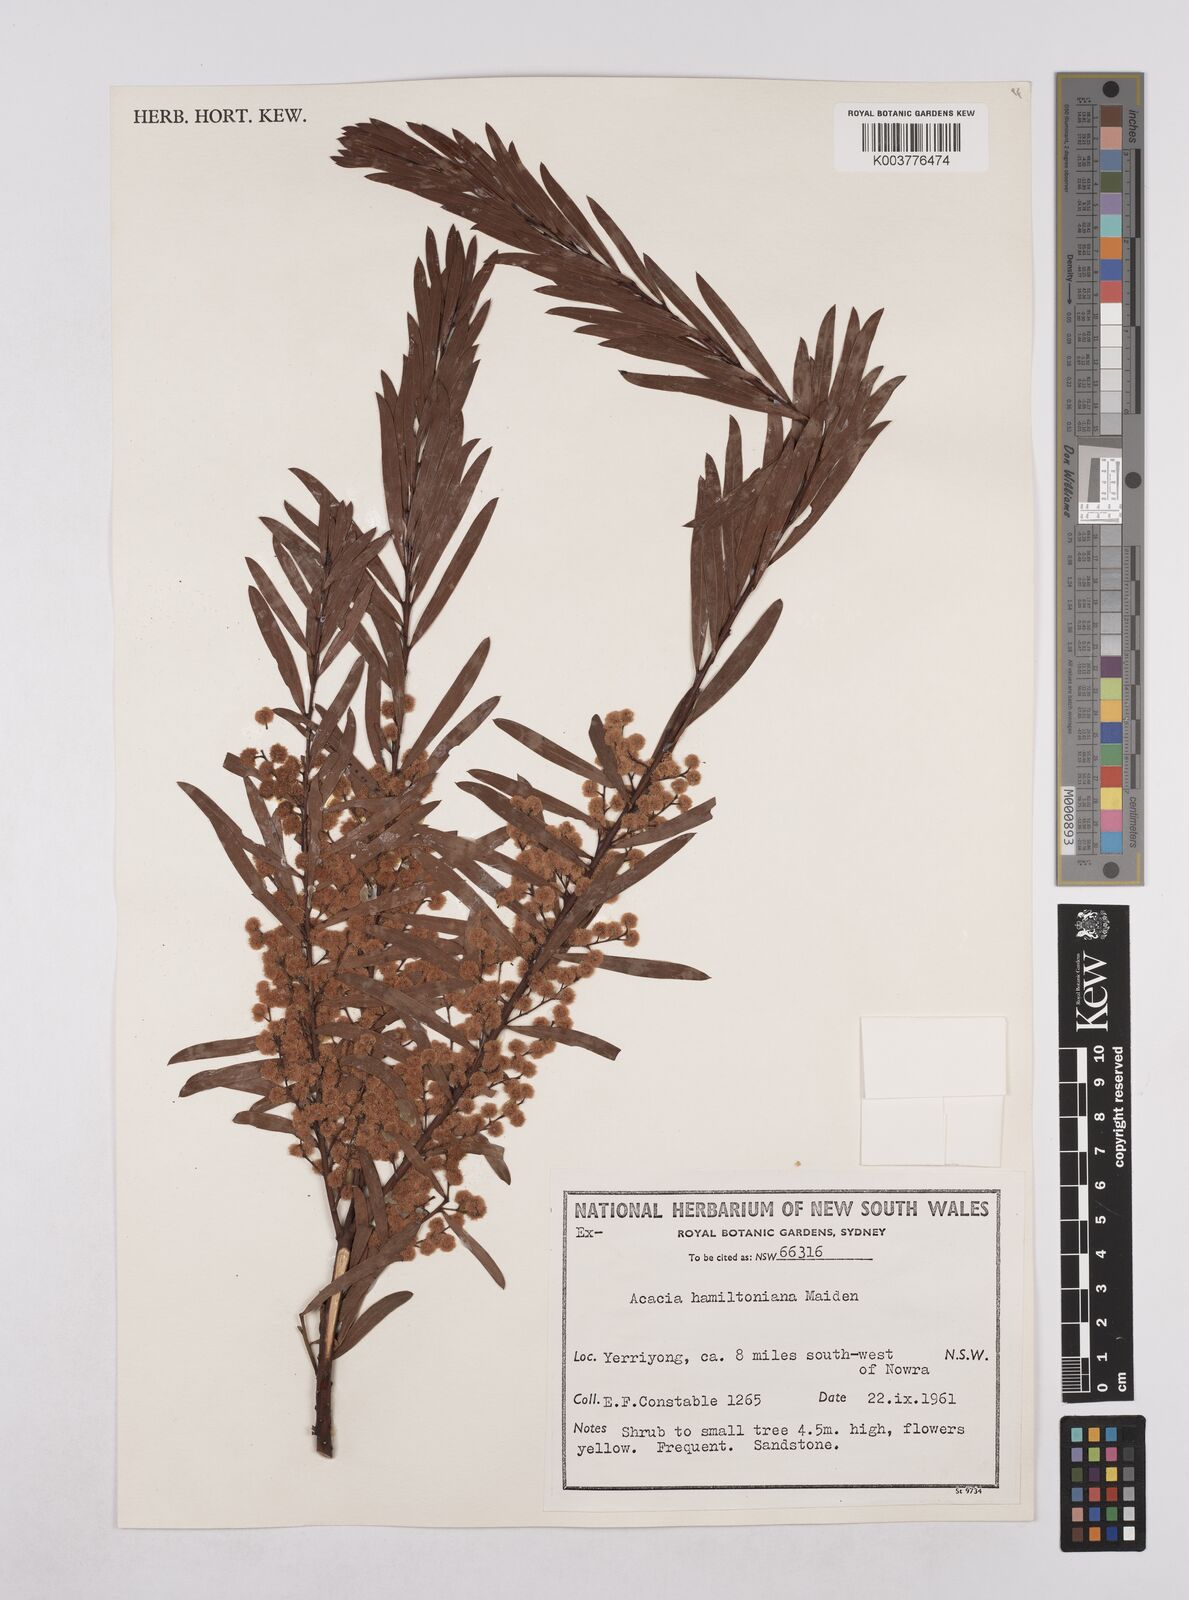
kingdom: Plantae
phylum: Tracheophyta
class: Magnoliopsida
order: Fabales
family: Fabaceae
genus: Acacia
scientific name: Acacia hamiltoniana
